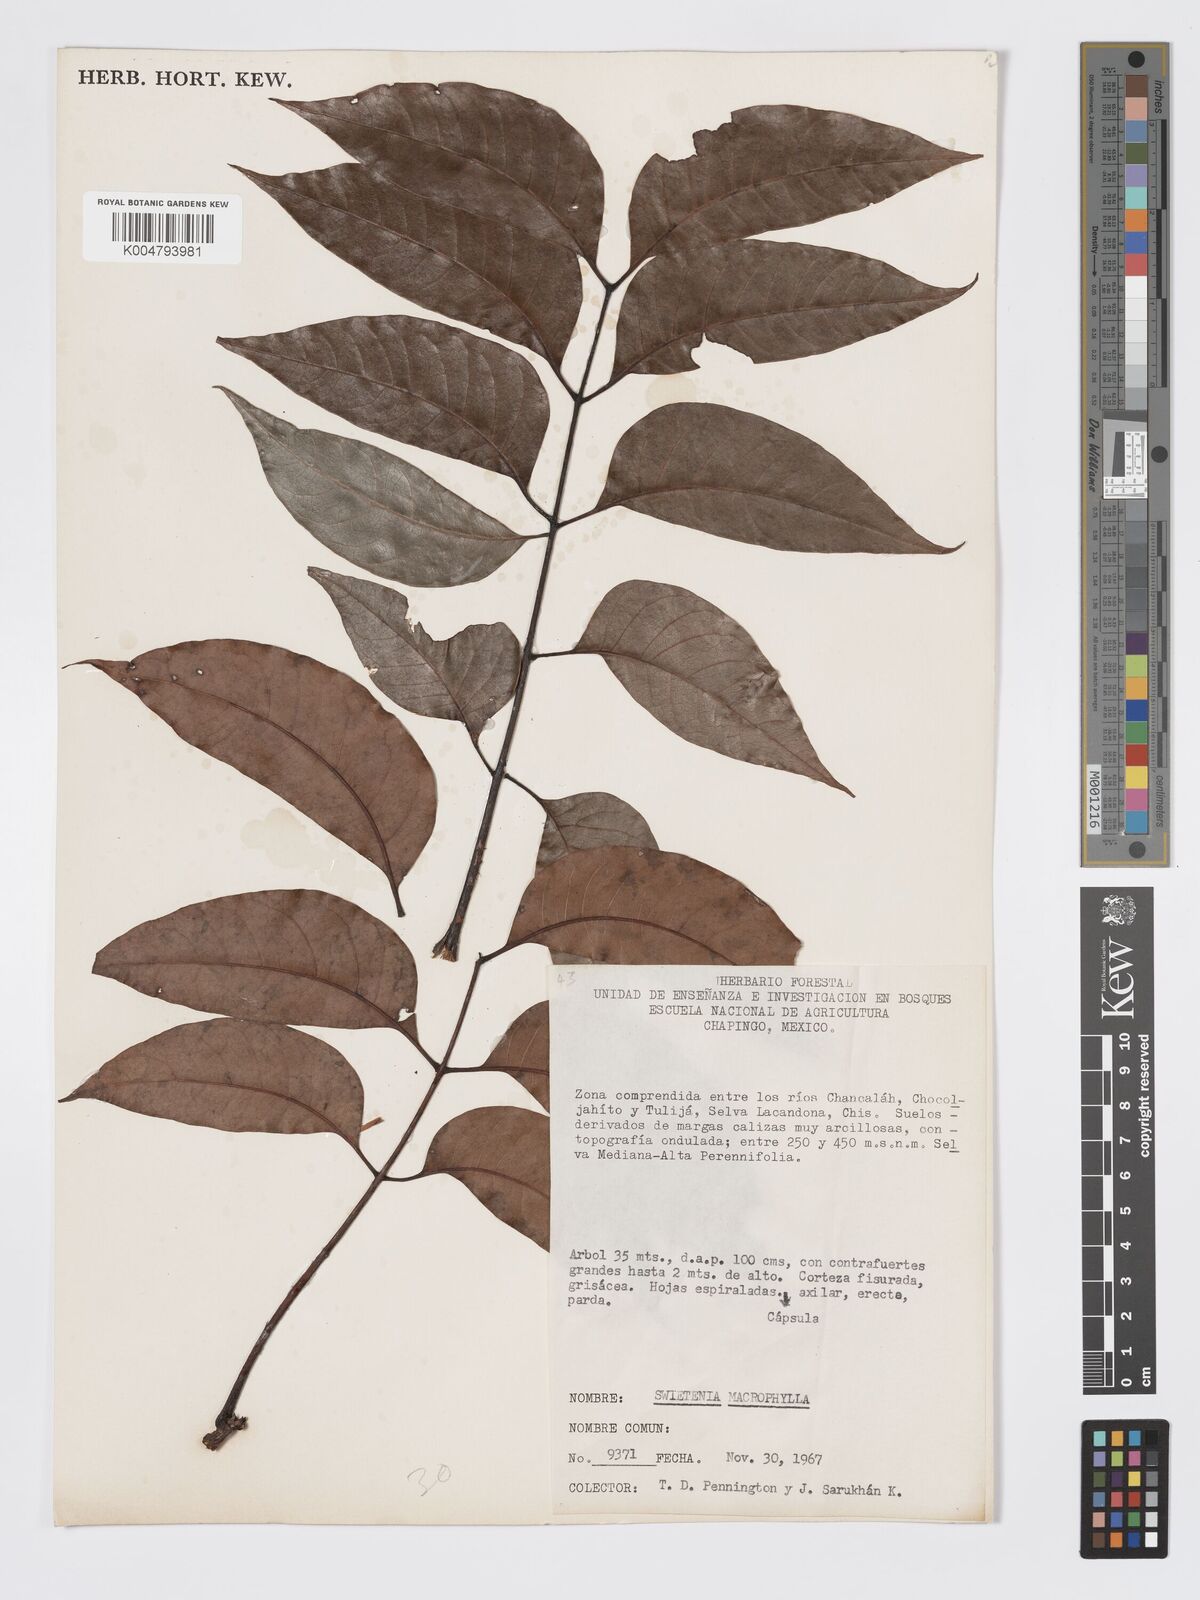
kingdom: Plantae
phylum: Tracheophyta
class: Magnoliopsida
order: Sapindales
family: Meliaceae
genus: Swietenia
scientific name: Swietenia macrophylla
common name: Honduras mahogany
